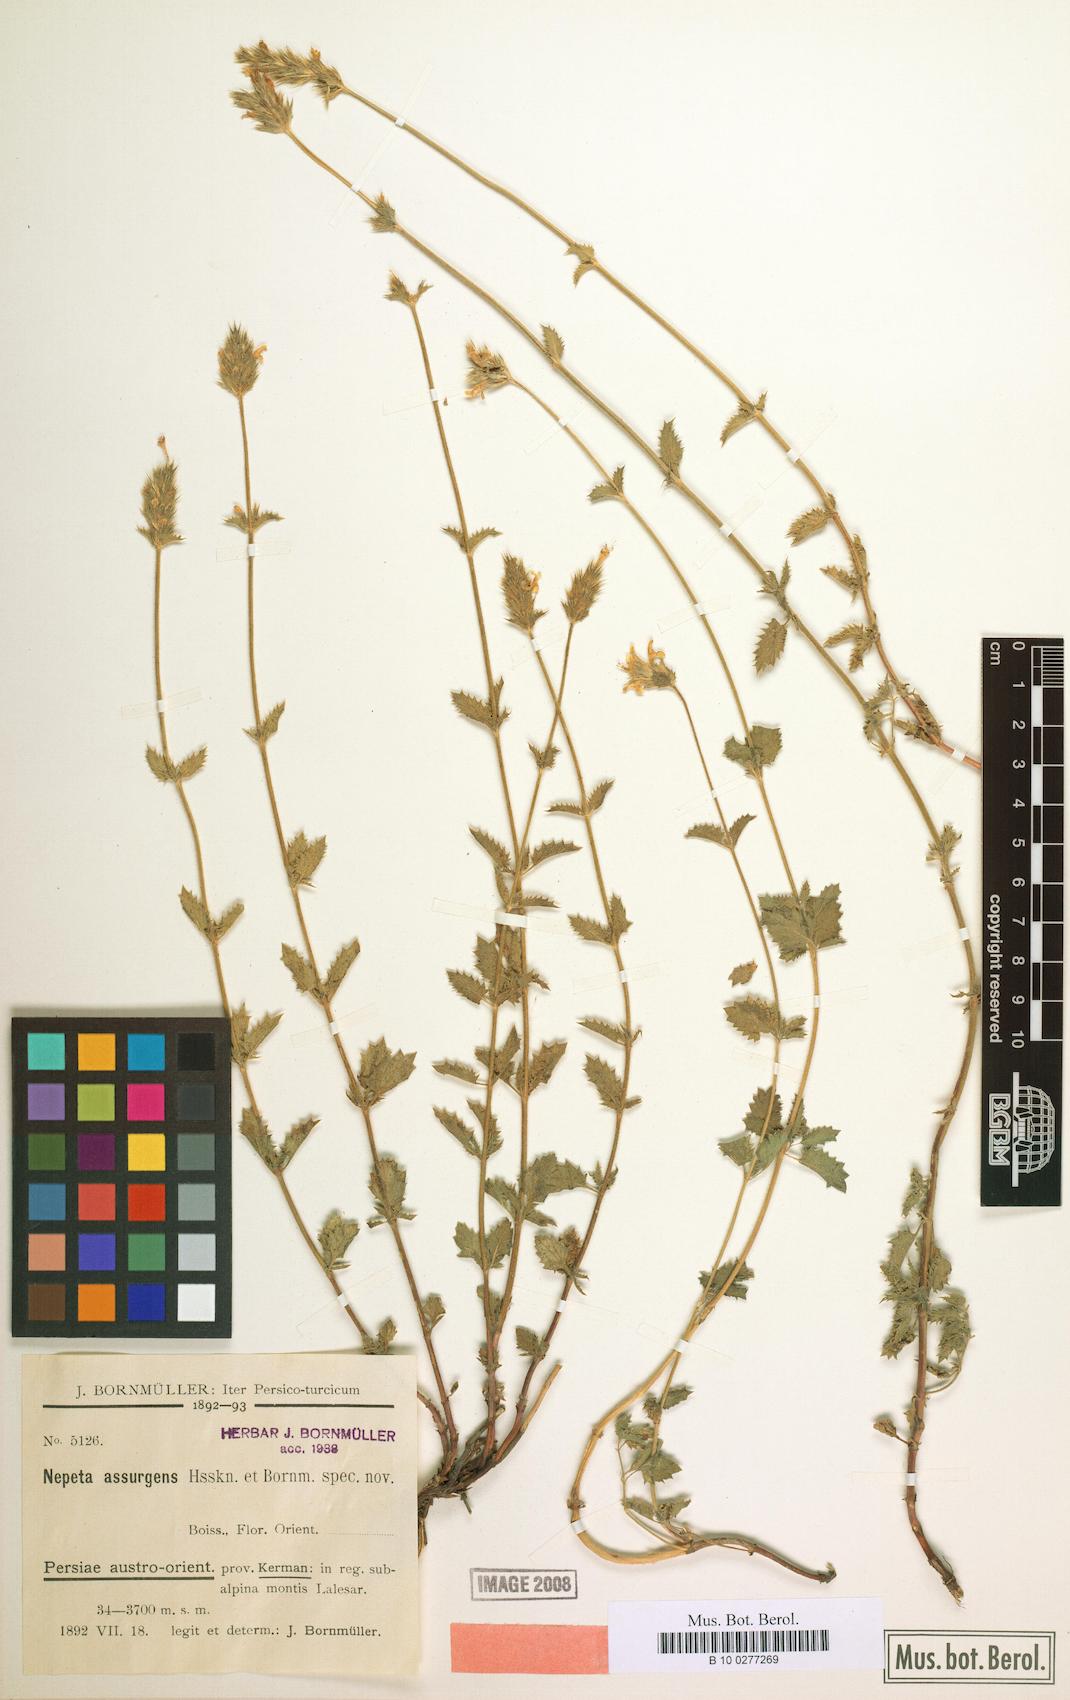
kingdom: Plantae
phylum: Tracheophyta
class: Magnoliopsida
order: Lamiales
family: Lamiaceae
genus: Nepeta
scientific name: Nepeta assurgens
